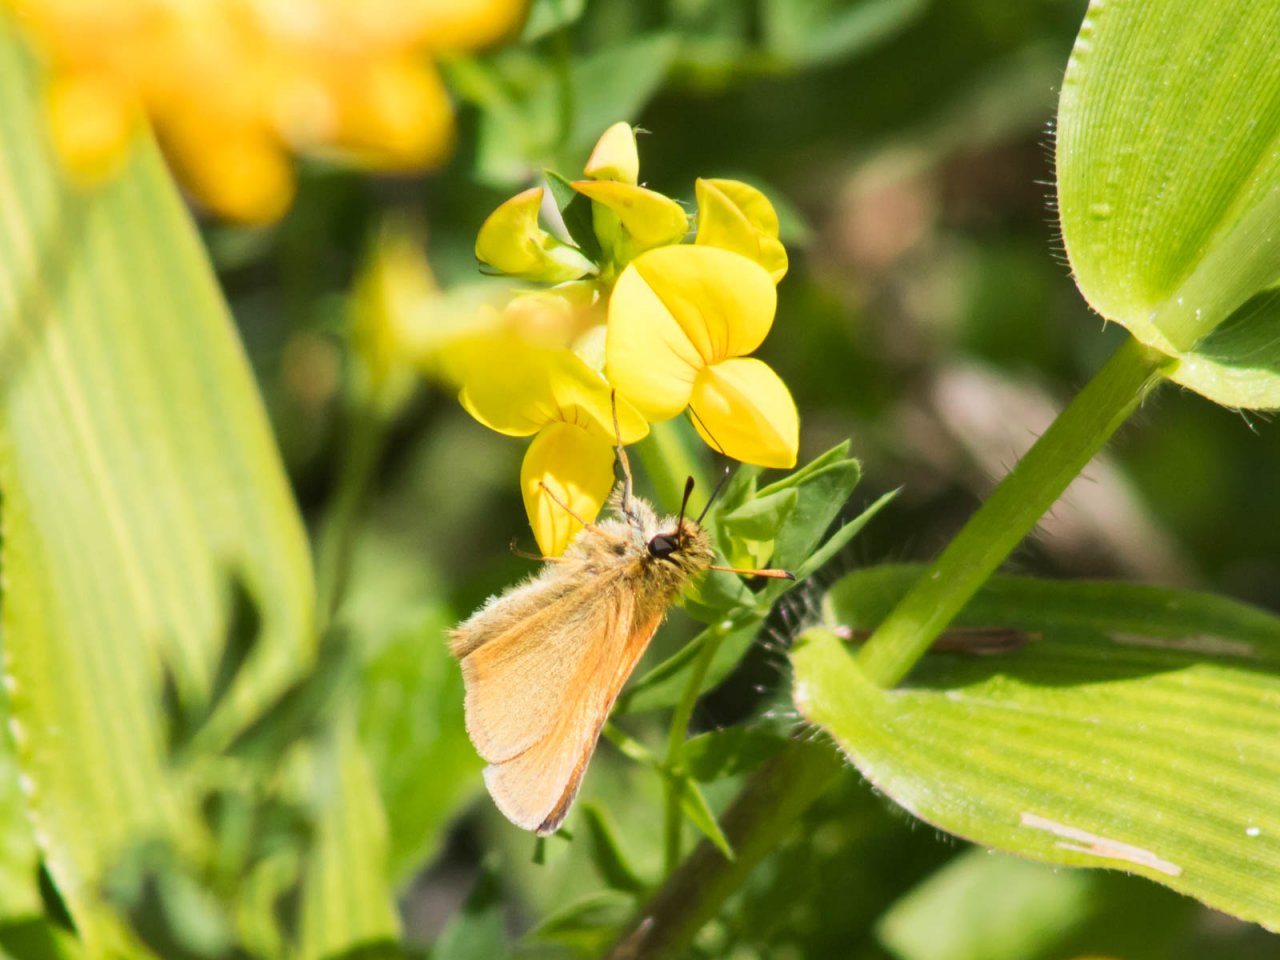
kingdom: Animalia
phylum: Arthropoda
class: Insecta
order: Lepidoptera
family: Hesperiidae
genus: Thymelicus
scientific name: Thymelicus lineola
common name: European Skipper
